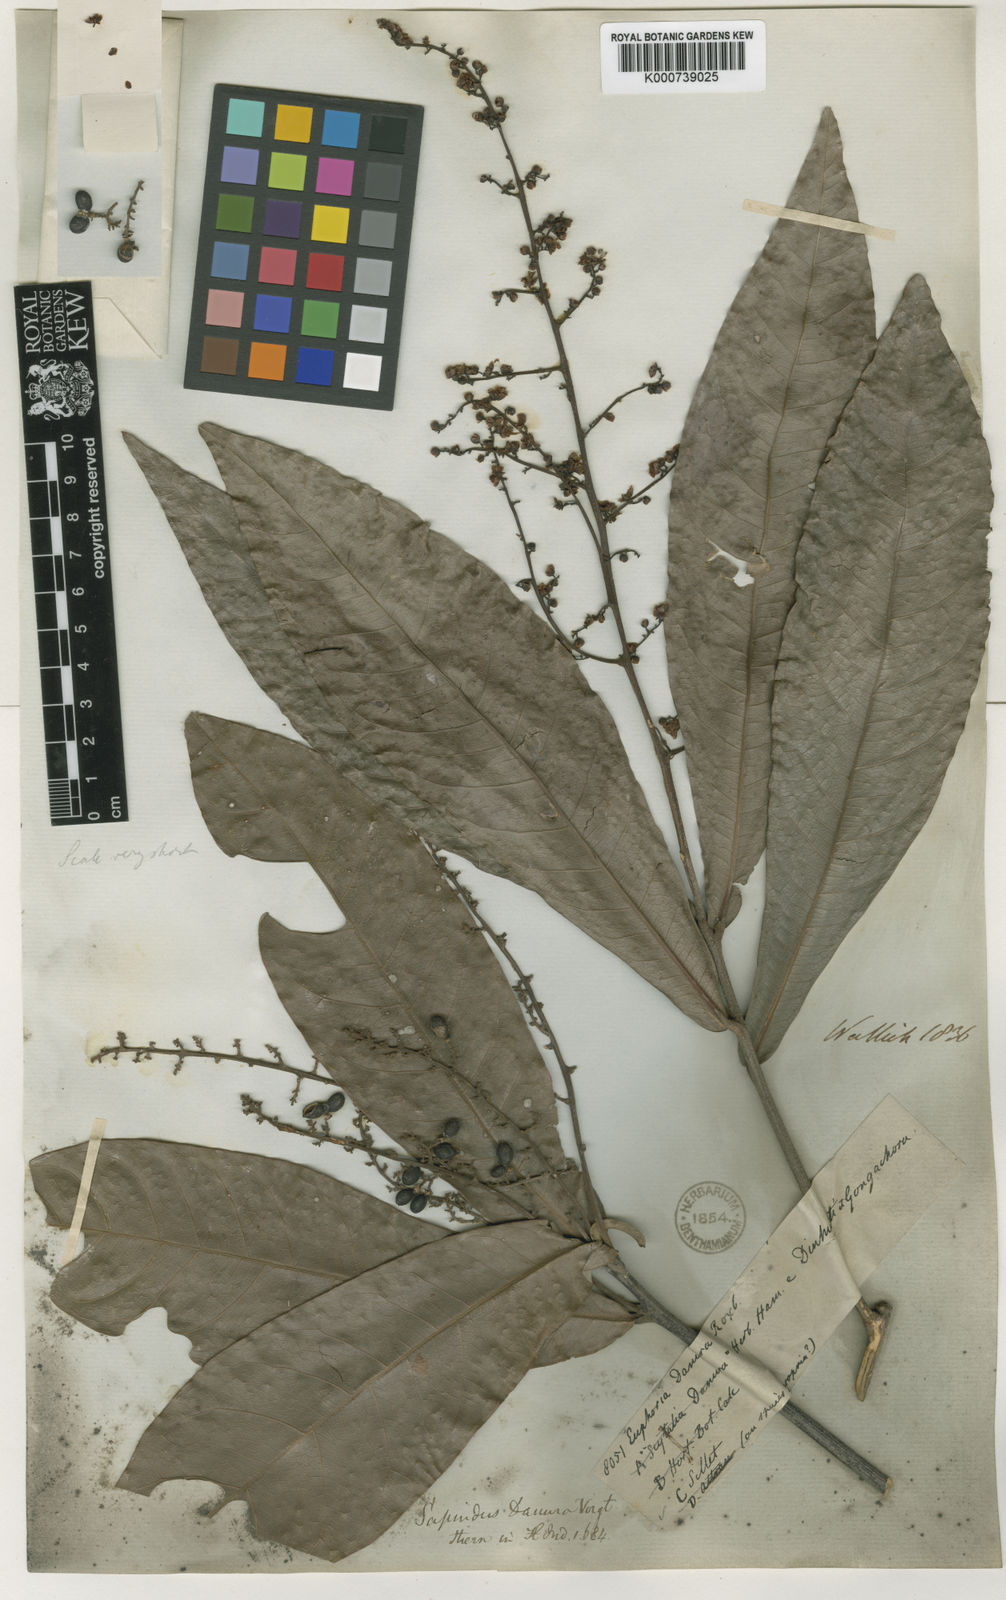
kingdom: Plantae
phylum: Tracheophyta
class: Magnoliopsida
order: Sapindales
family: Sapindaceae
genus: Lepisanthes
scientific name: Lepisanthes senegalensis
